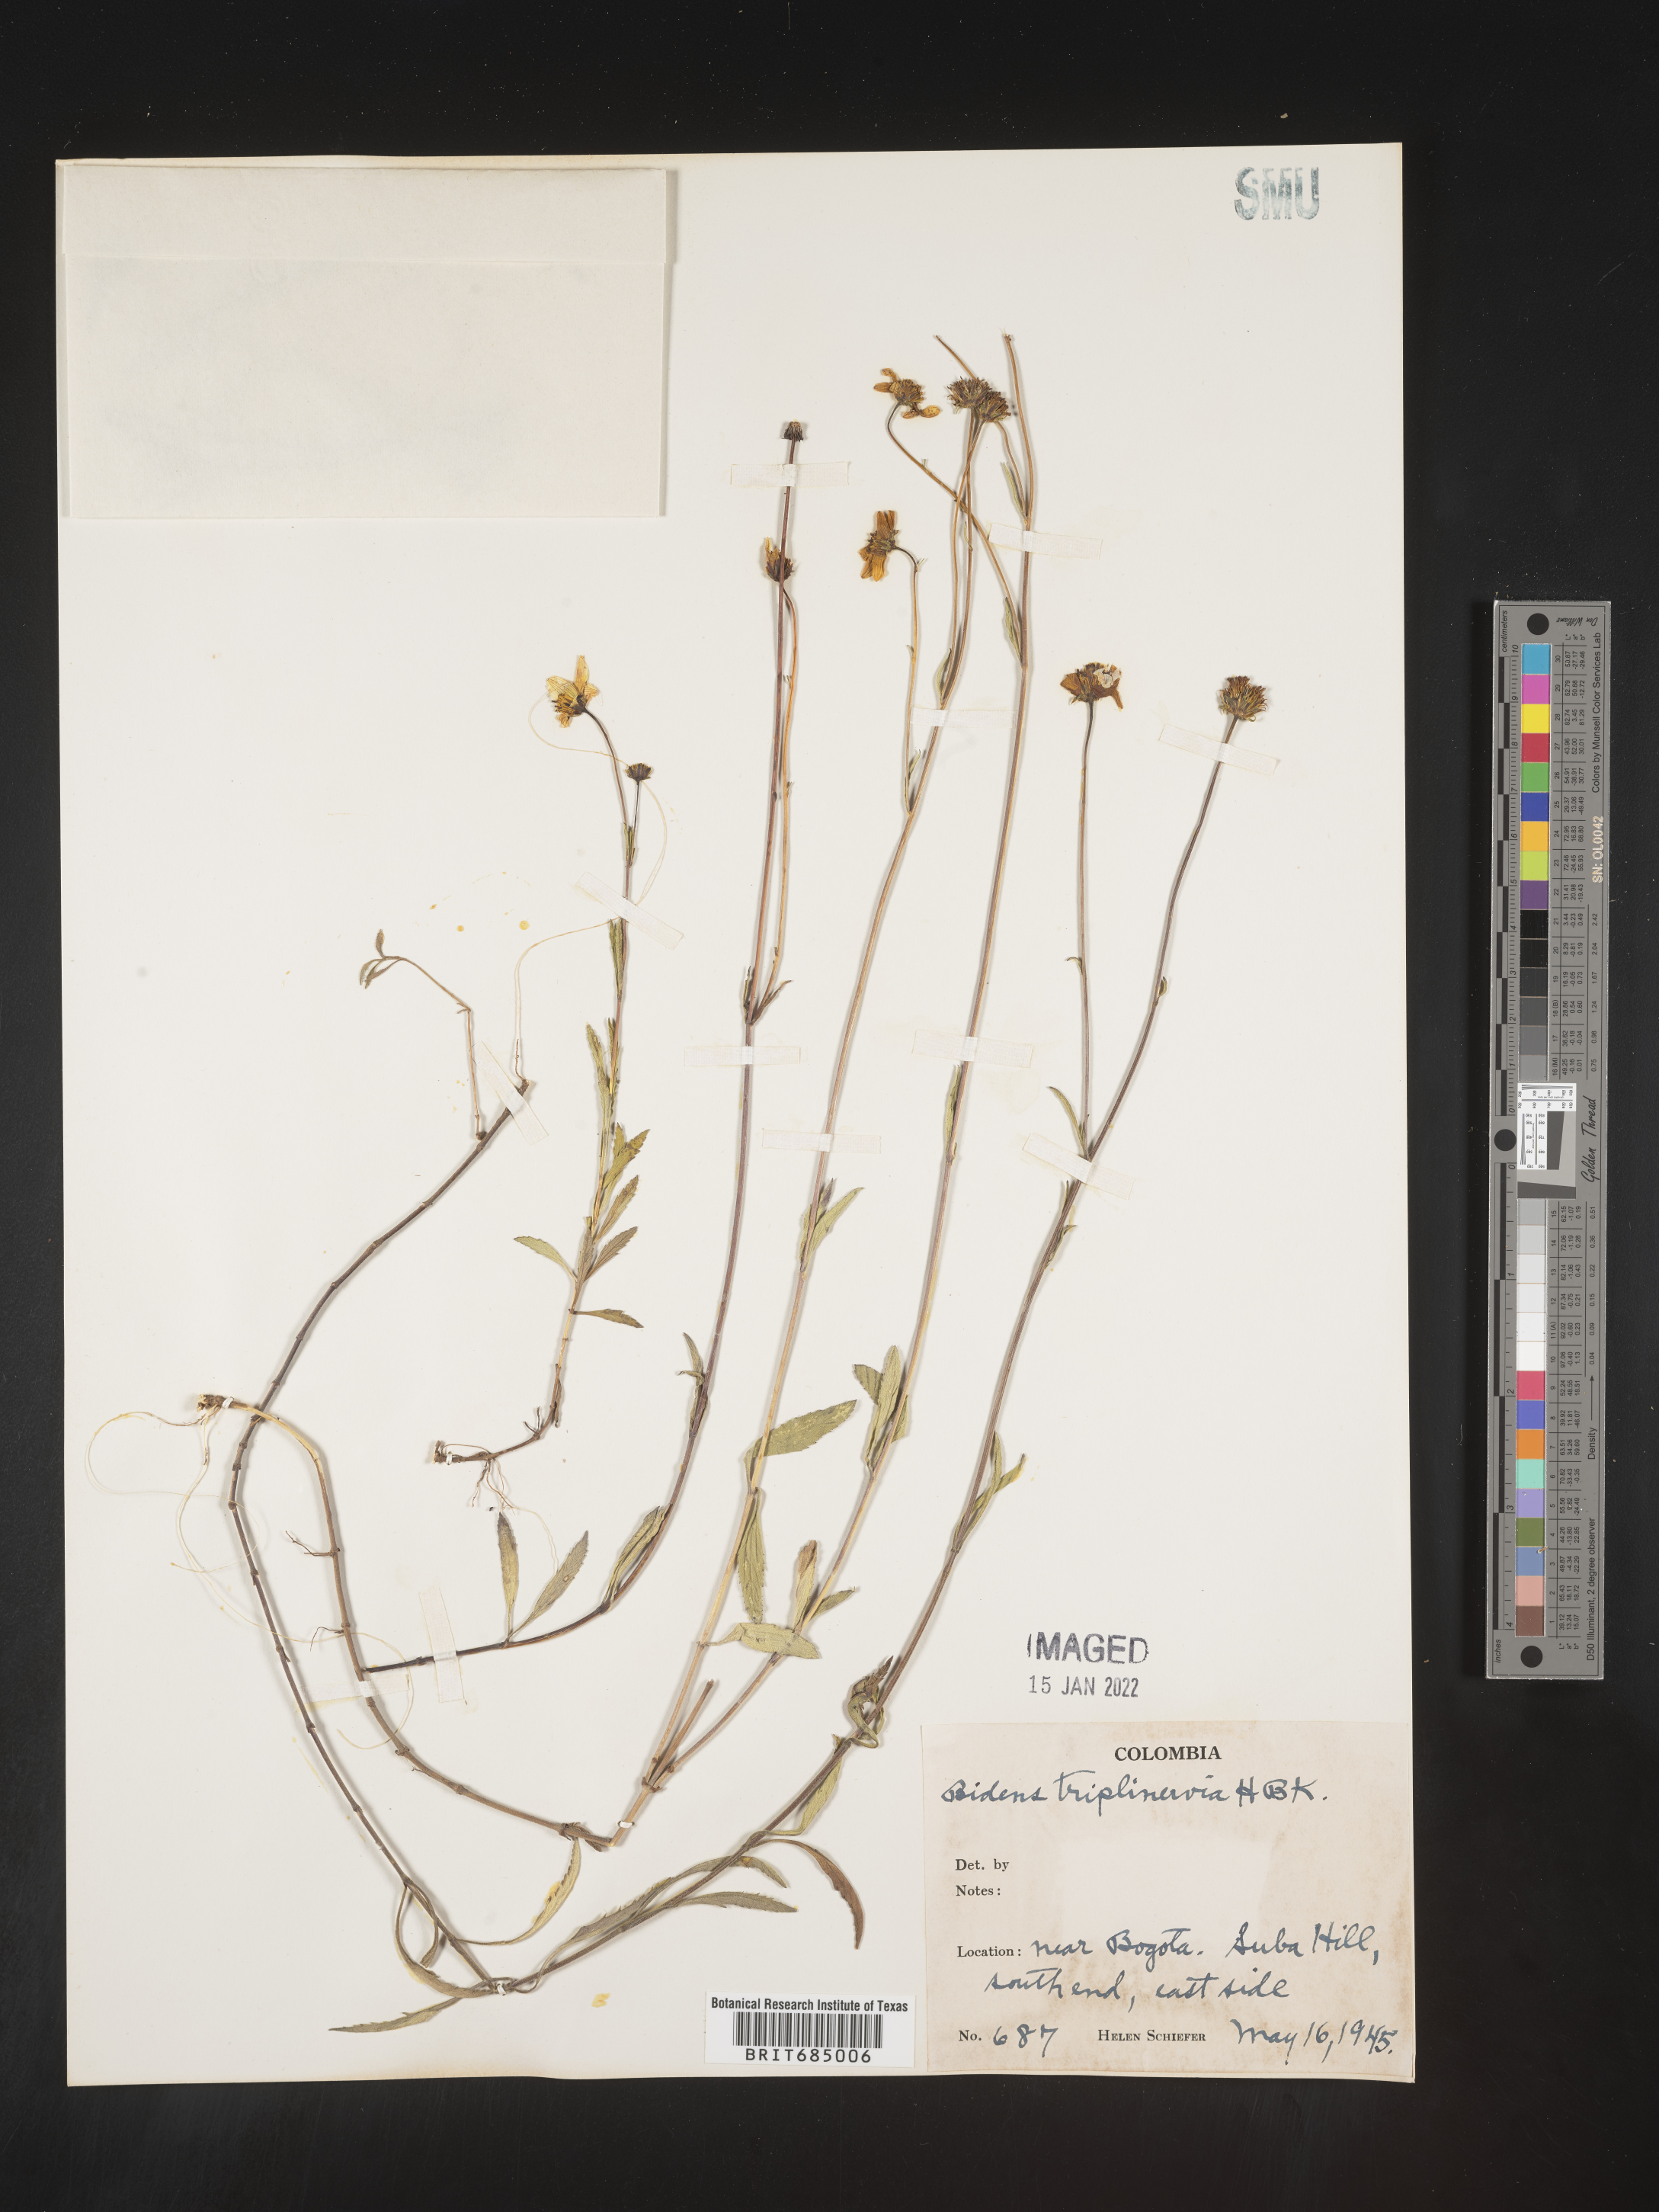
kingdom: Plantae
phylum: Tracheophyta
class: Magnoliopsida
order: Asterales
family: Asteraceae
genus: Bidens
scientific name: Bidens rubifolia
